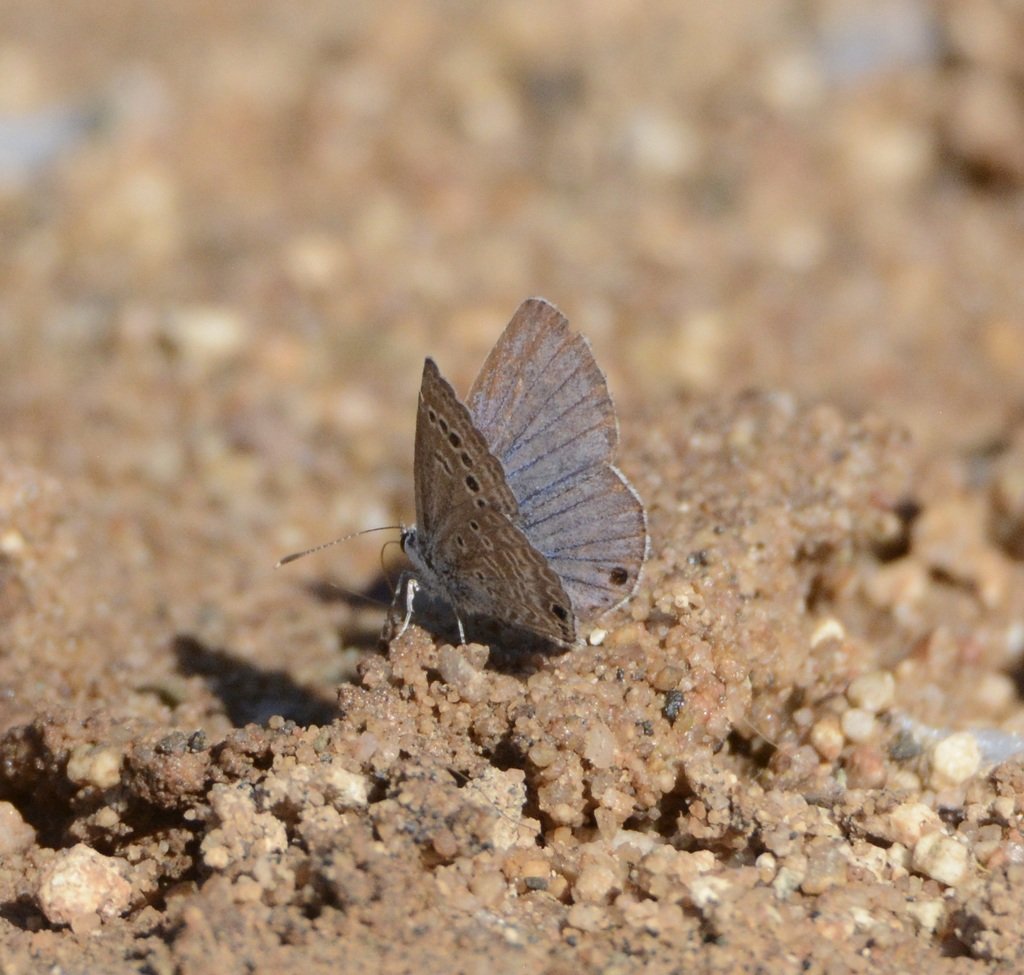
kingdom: Animalia
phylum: Arthropoda
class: Insecta
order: Lepidoptera
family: Lycaenidae
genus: Echinargus
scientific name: Echinargus isola
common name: Reakirt's Blue
